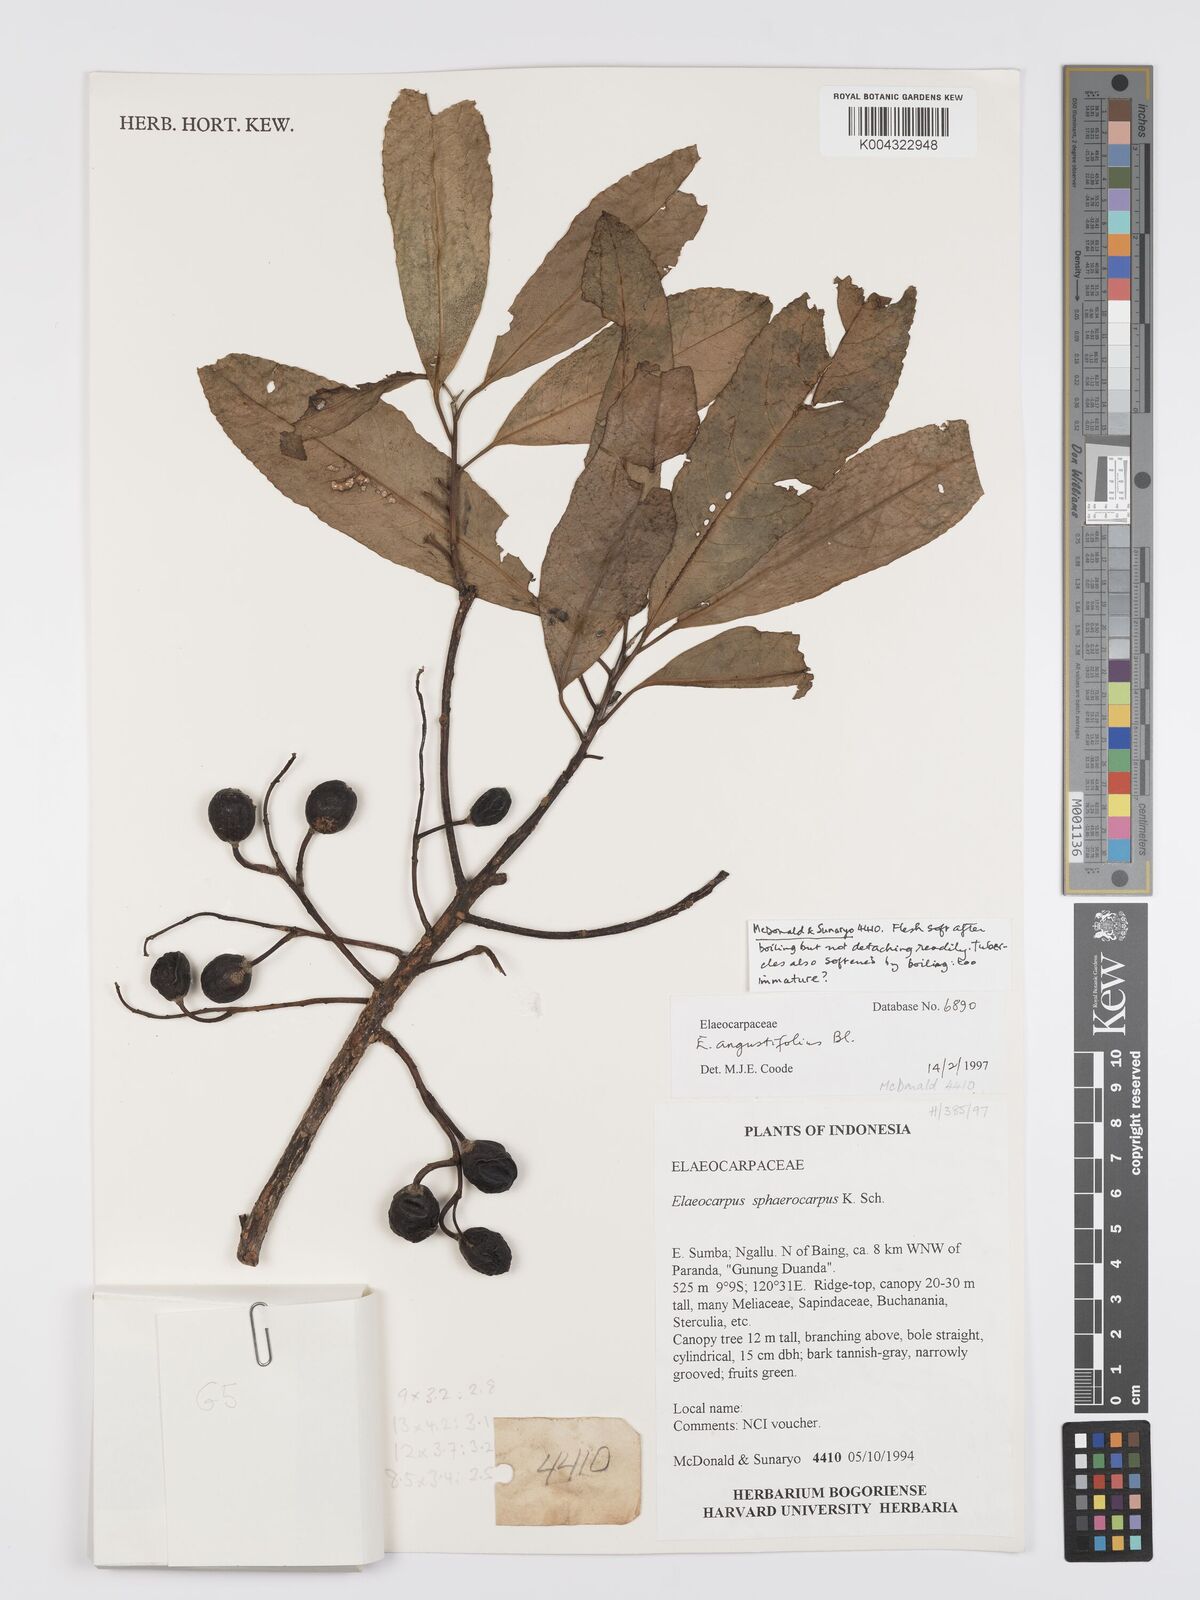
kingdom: Plantae
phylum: Tracheophyta
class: Magnoliopsida
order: Oxalidales
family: Elaeocarpaceae
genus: Elaeocarpus
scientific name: Elaeocarpus
